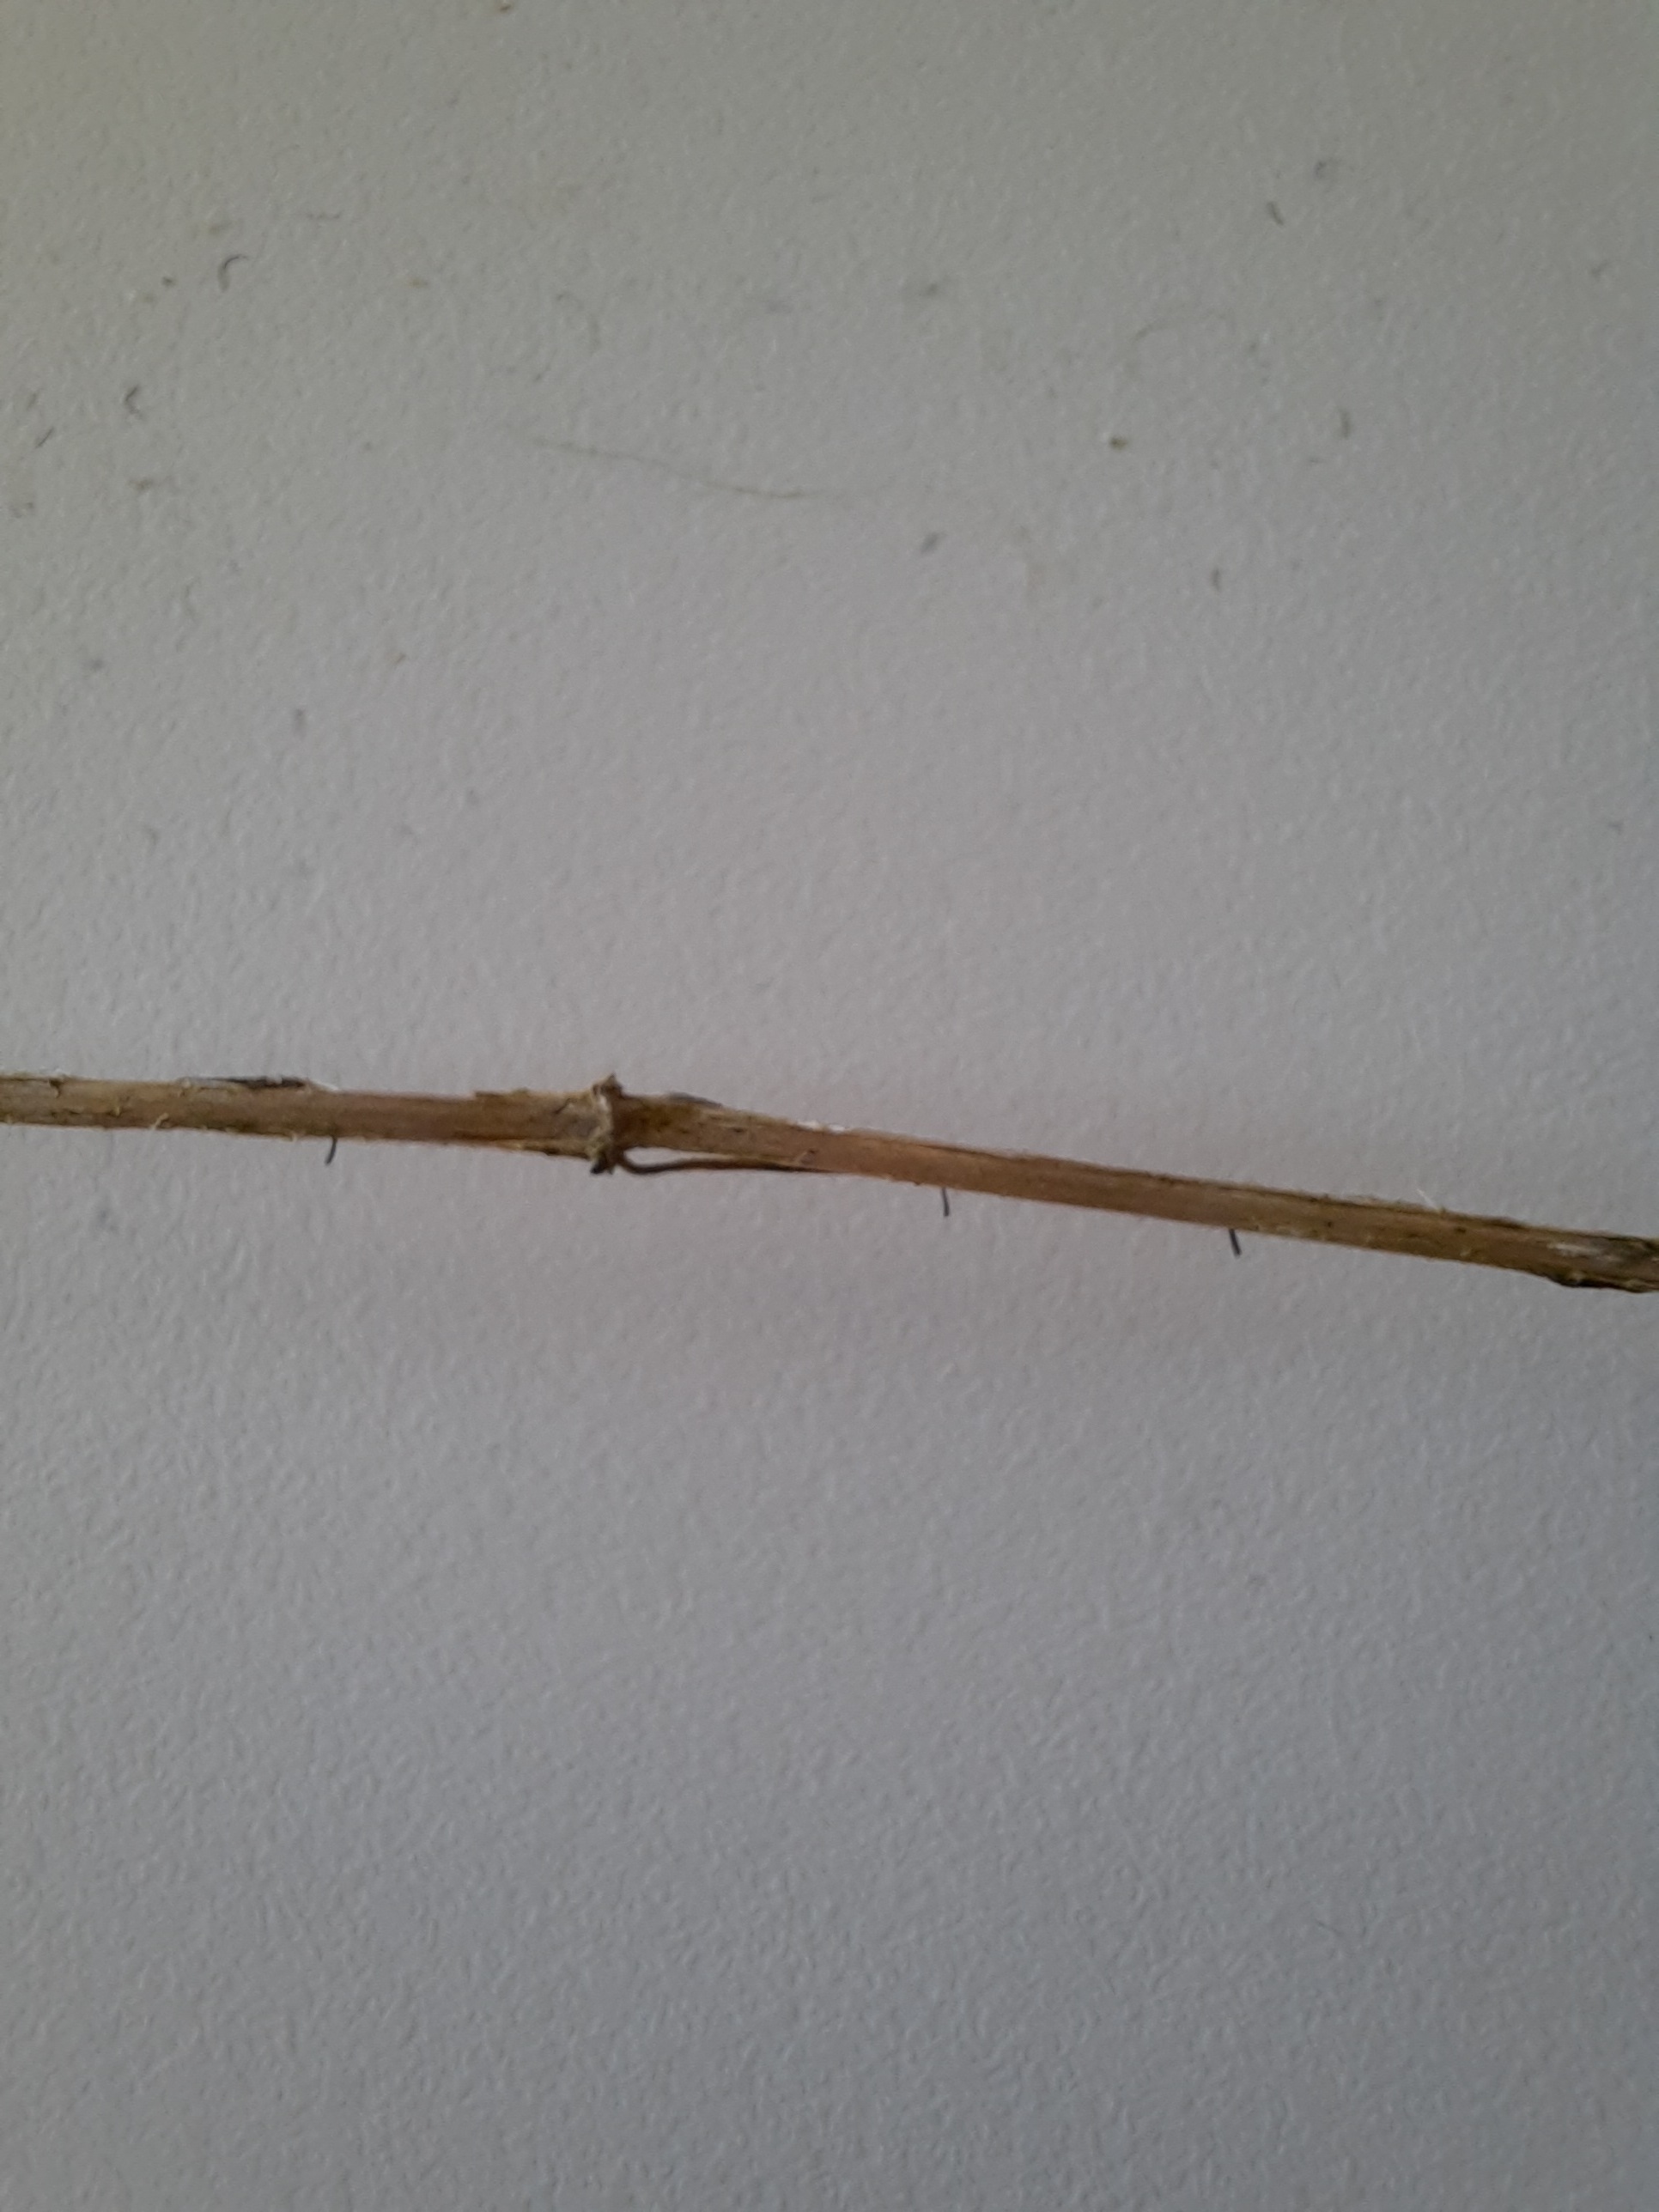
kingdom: Fungi
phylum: Ascomycota
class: Dothideomycetes
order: Acrospermales
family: Acrospermaceae
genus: Acrospermum
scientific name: Acrospermum pallidulum
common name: snerre-stængeltunge
